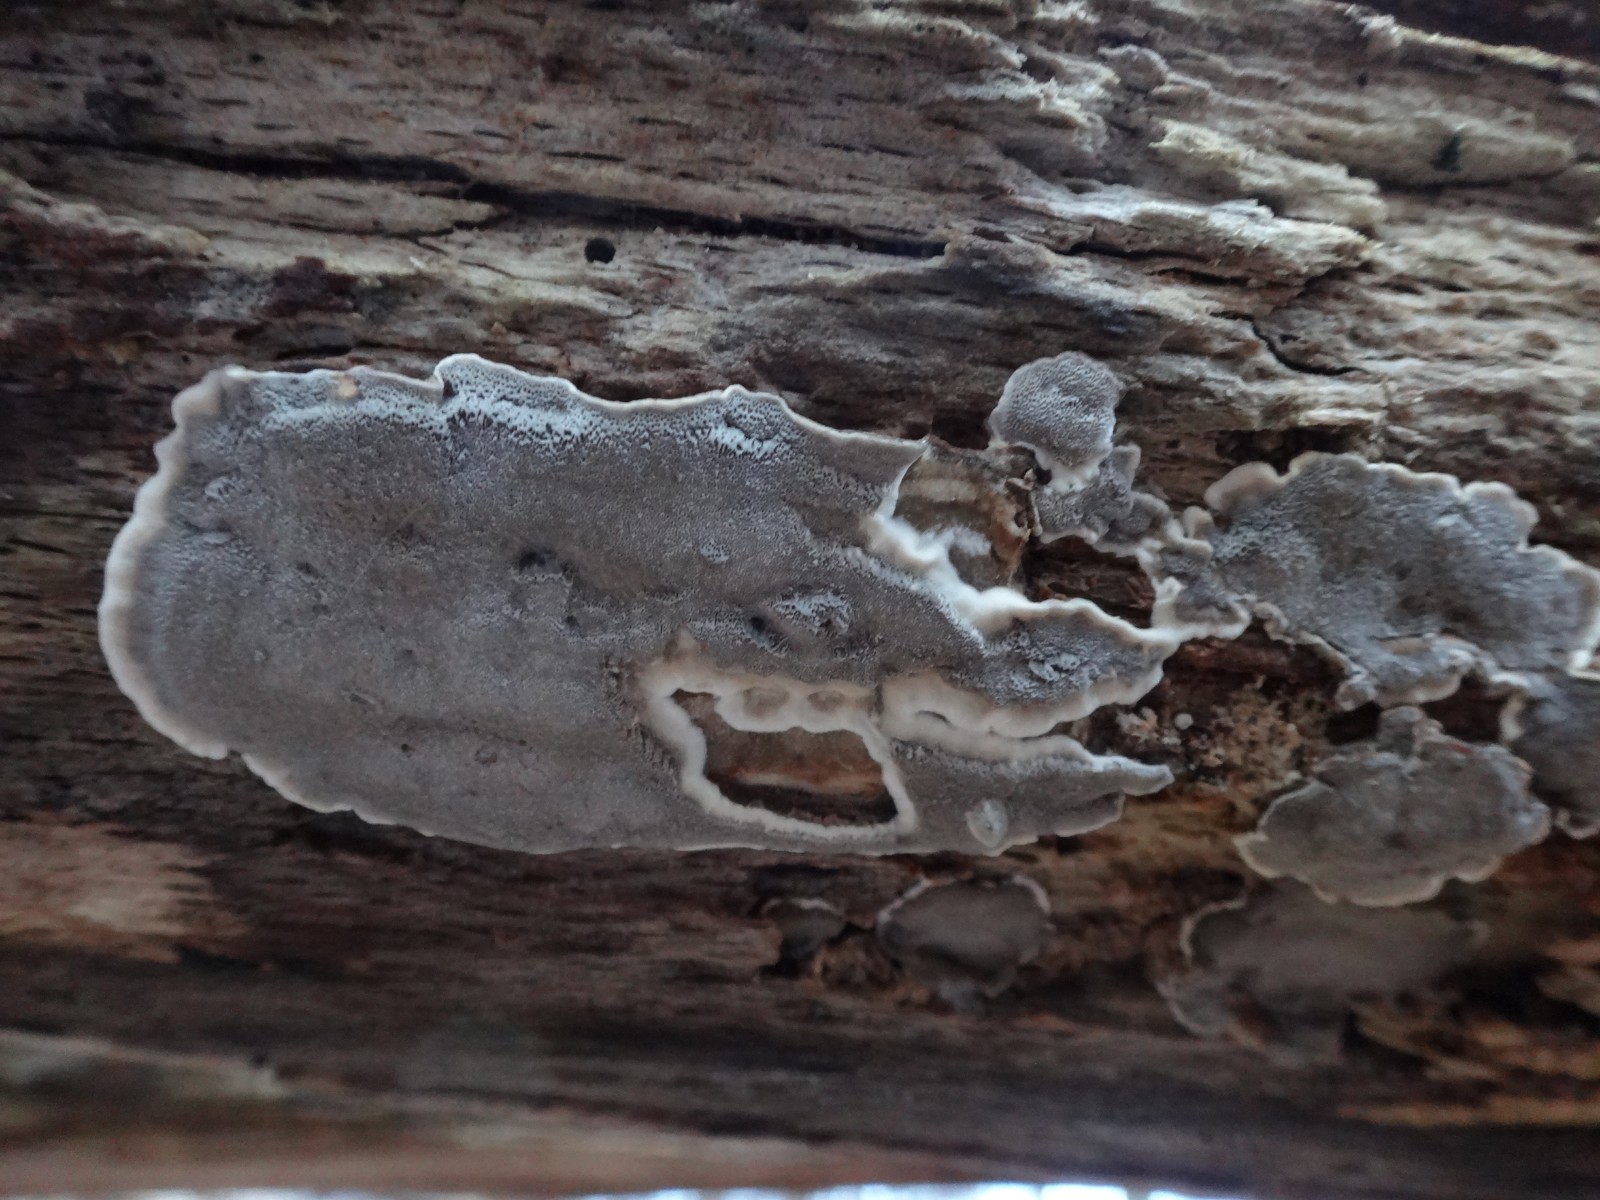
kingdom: Fungi
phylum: Basidiomycota
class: Agaricomycetes
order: Polyporales
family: Phanerochaetaceae
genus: Bjerkandera
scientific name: Bjerkandera adusta
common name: sveden sodporesvamp
